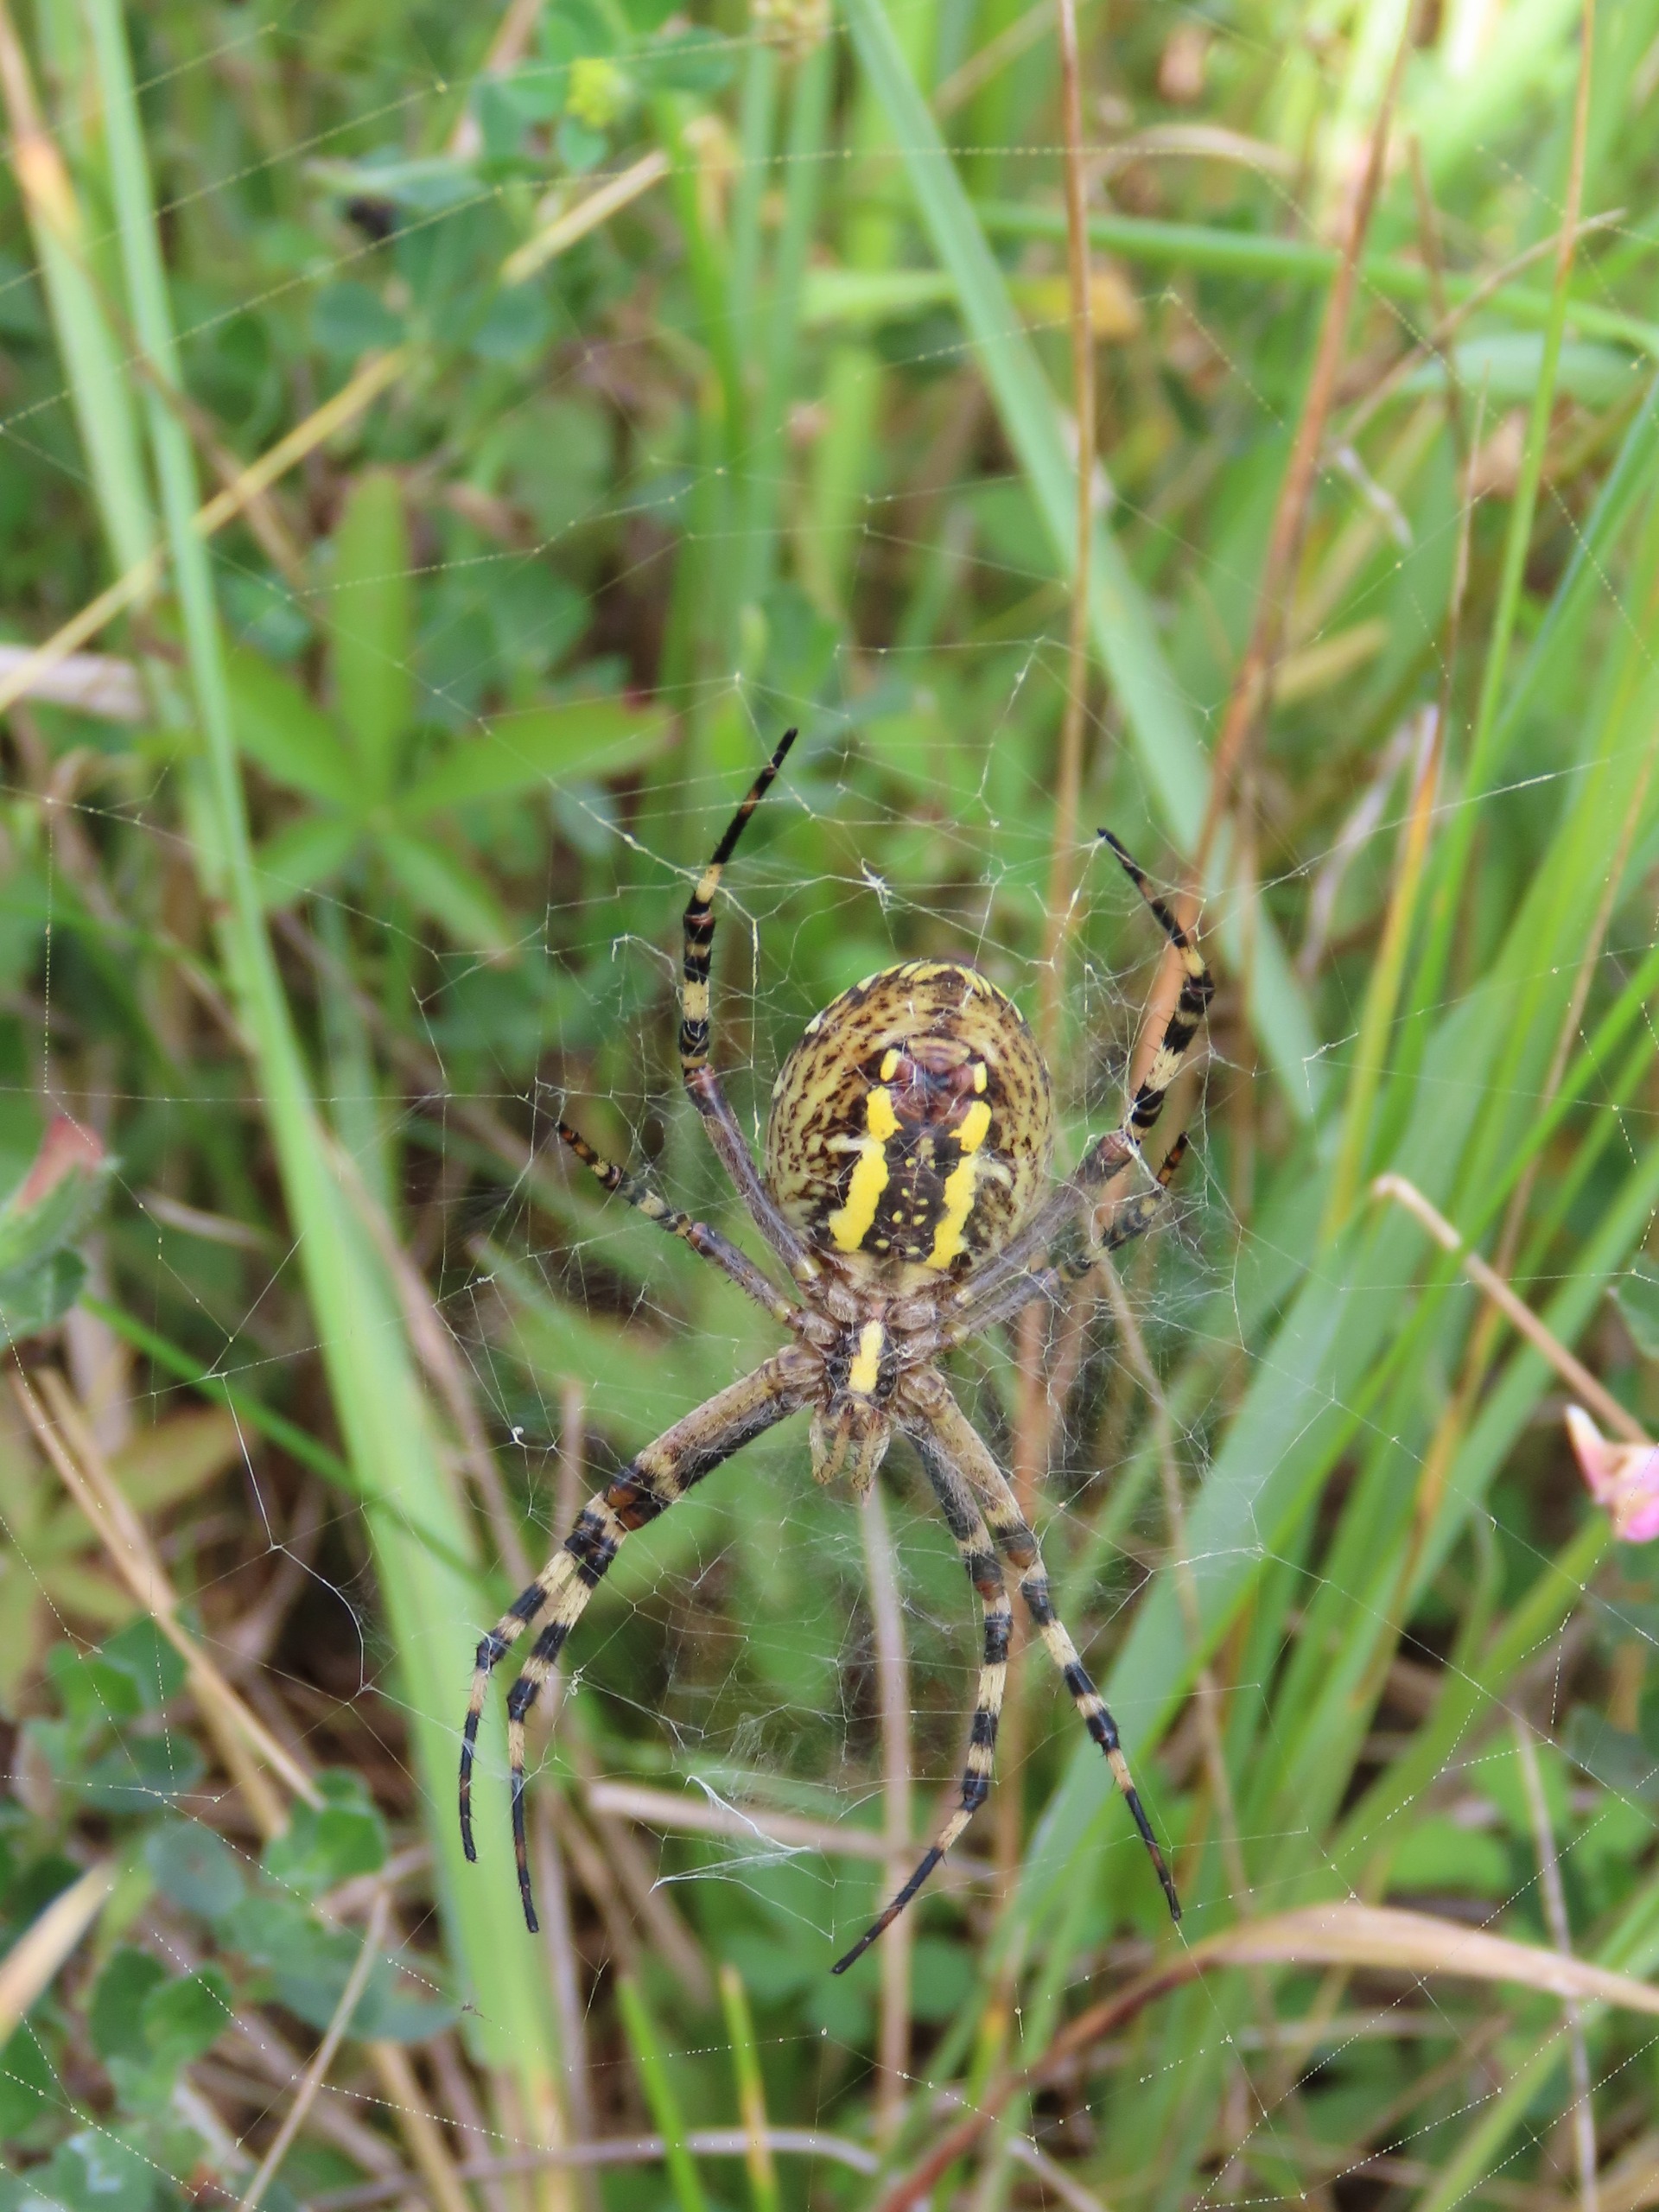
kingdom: Animalia
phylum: Arthropoda
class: Arachnida
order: Araneae
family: Araneidae
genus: Argiope
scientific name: Argiope bruennichi
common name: Hvepseedderkop
